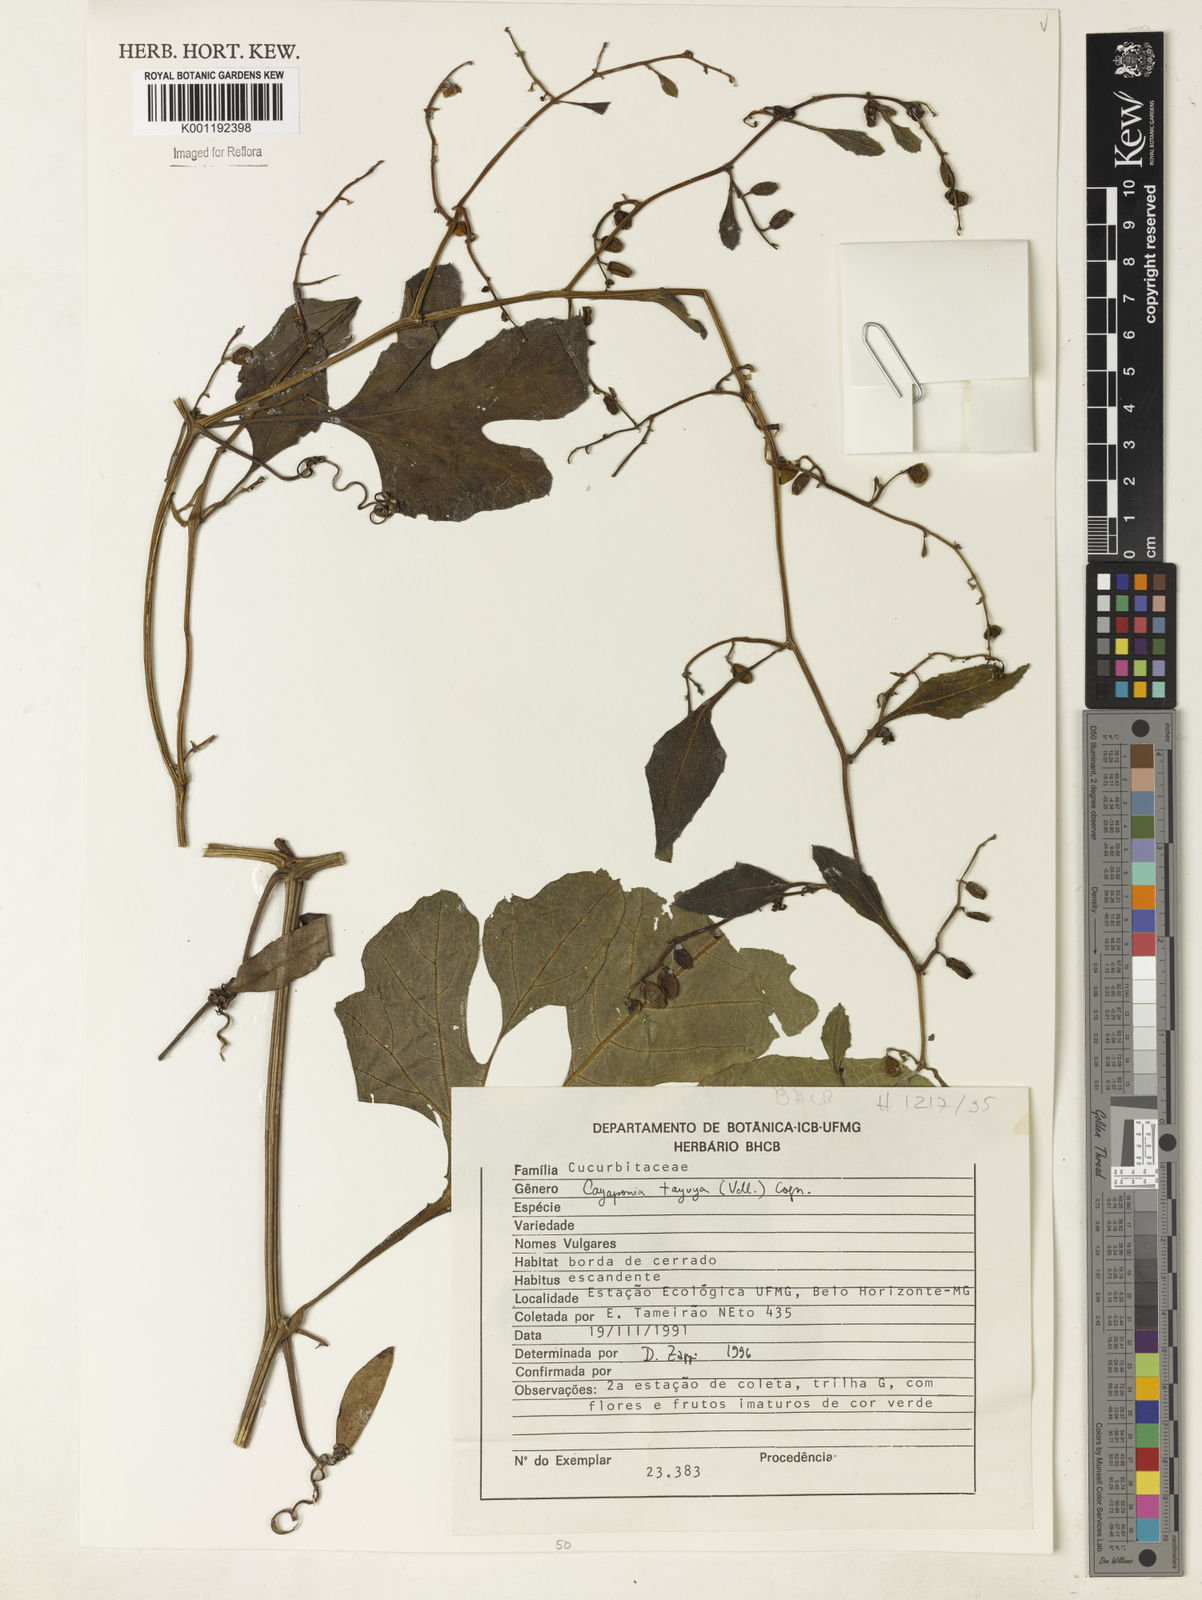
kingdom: Plantae
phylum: Tracheophyta
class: Magnoliopsida
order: Cucurbitales
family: Cucurbitaceae
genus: Cayaponia
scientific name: Cayaponia tayuya
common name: Tayuya
